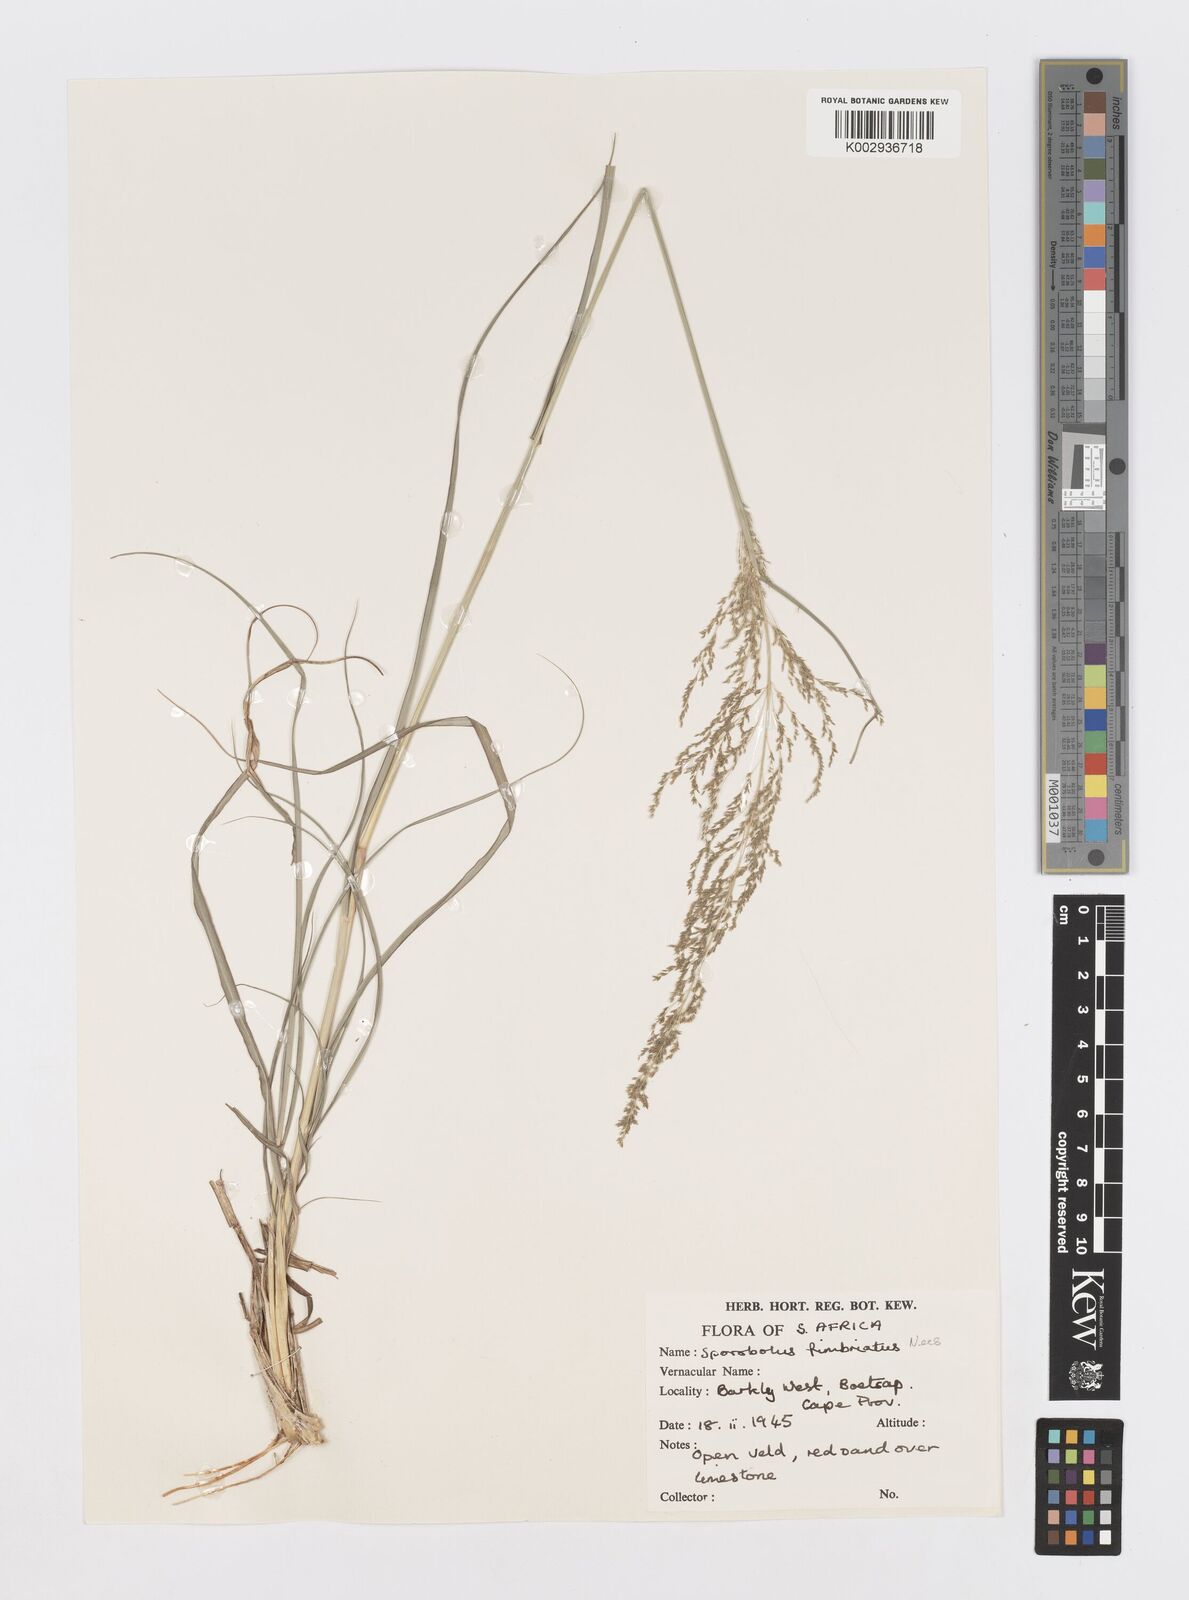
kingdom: Plantae
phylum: Tracheophyta
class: Liliopsida
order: Poales
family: Poaceae
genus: Sporobolus
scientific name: Sporobolus fimbriatus
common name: Fringed dropseed
